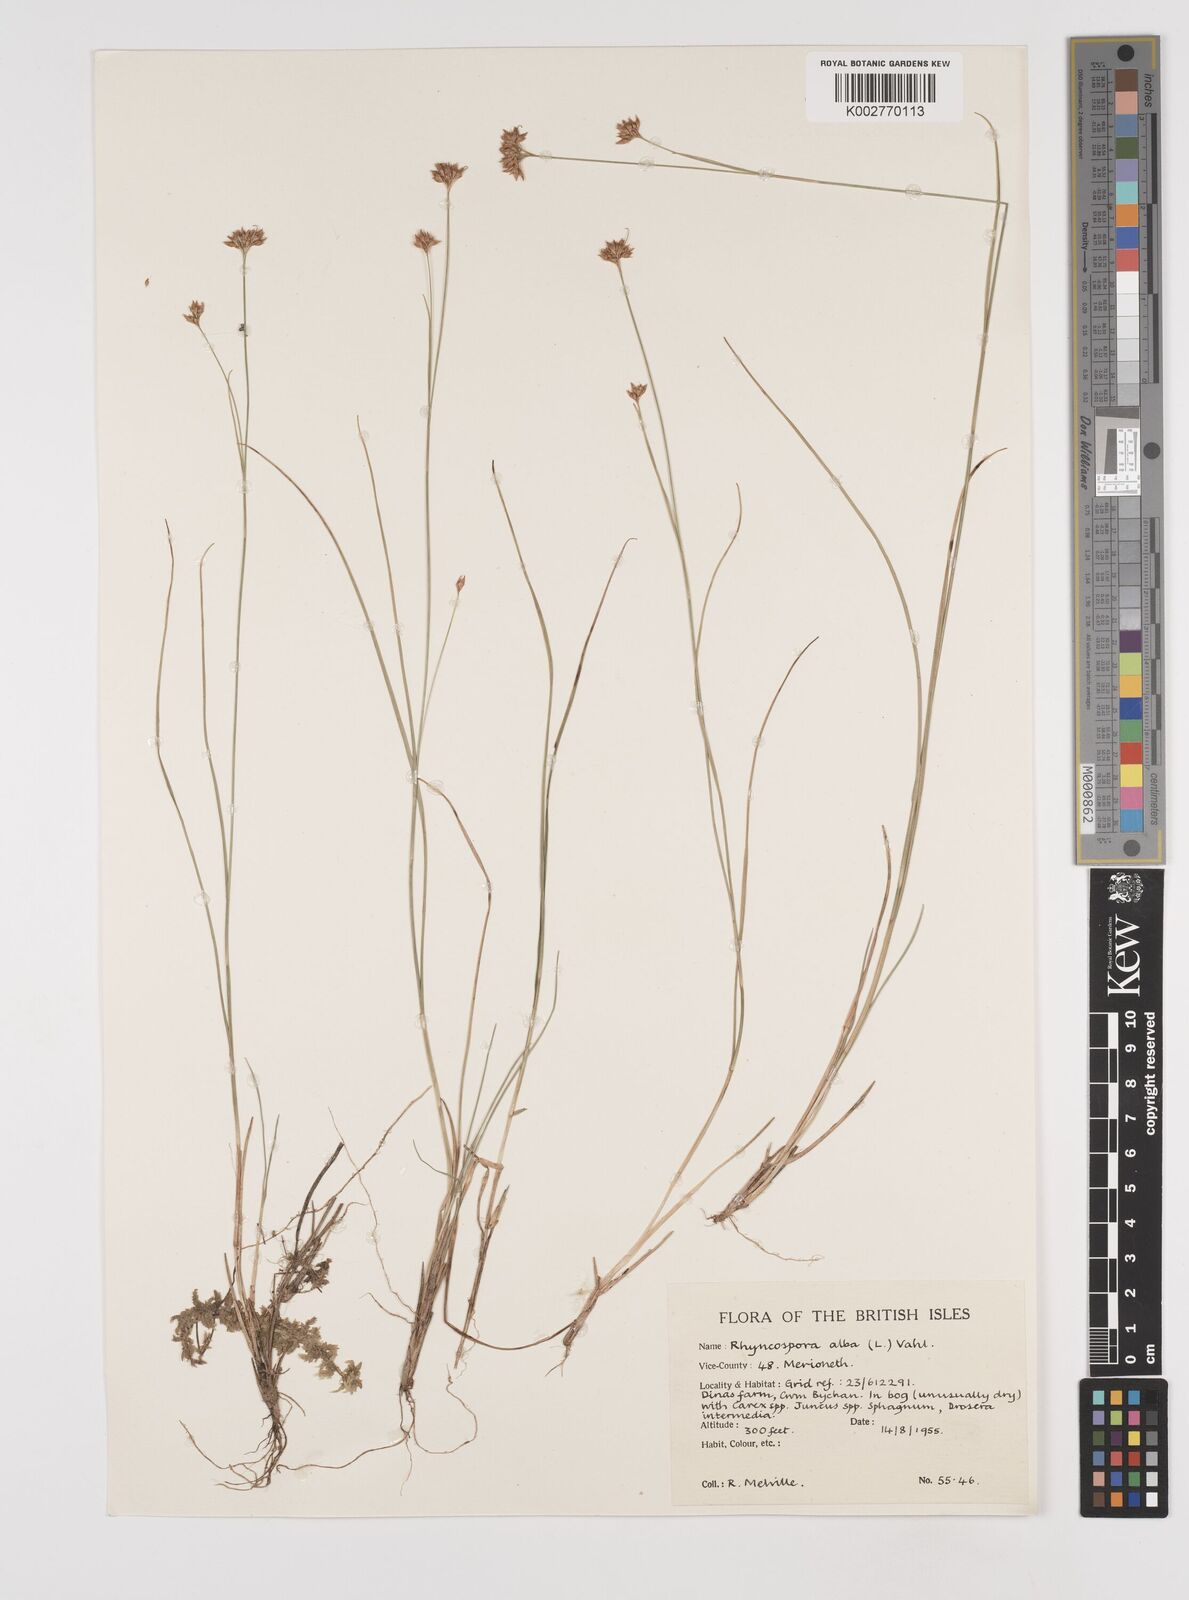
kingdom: Plantae
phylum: Tracheophyta
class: Liliopsida
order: Poales
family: Cyperaceae
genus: Rhynchospora
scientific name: Rhynchospora alba
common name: White beak-sedge
